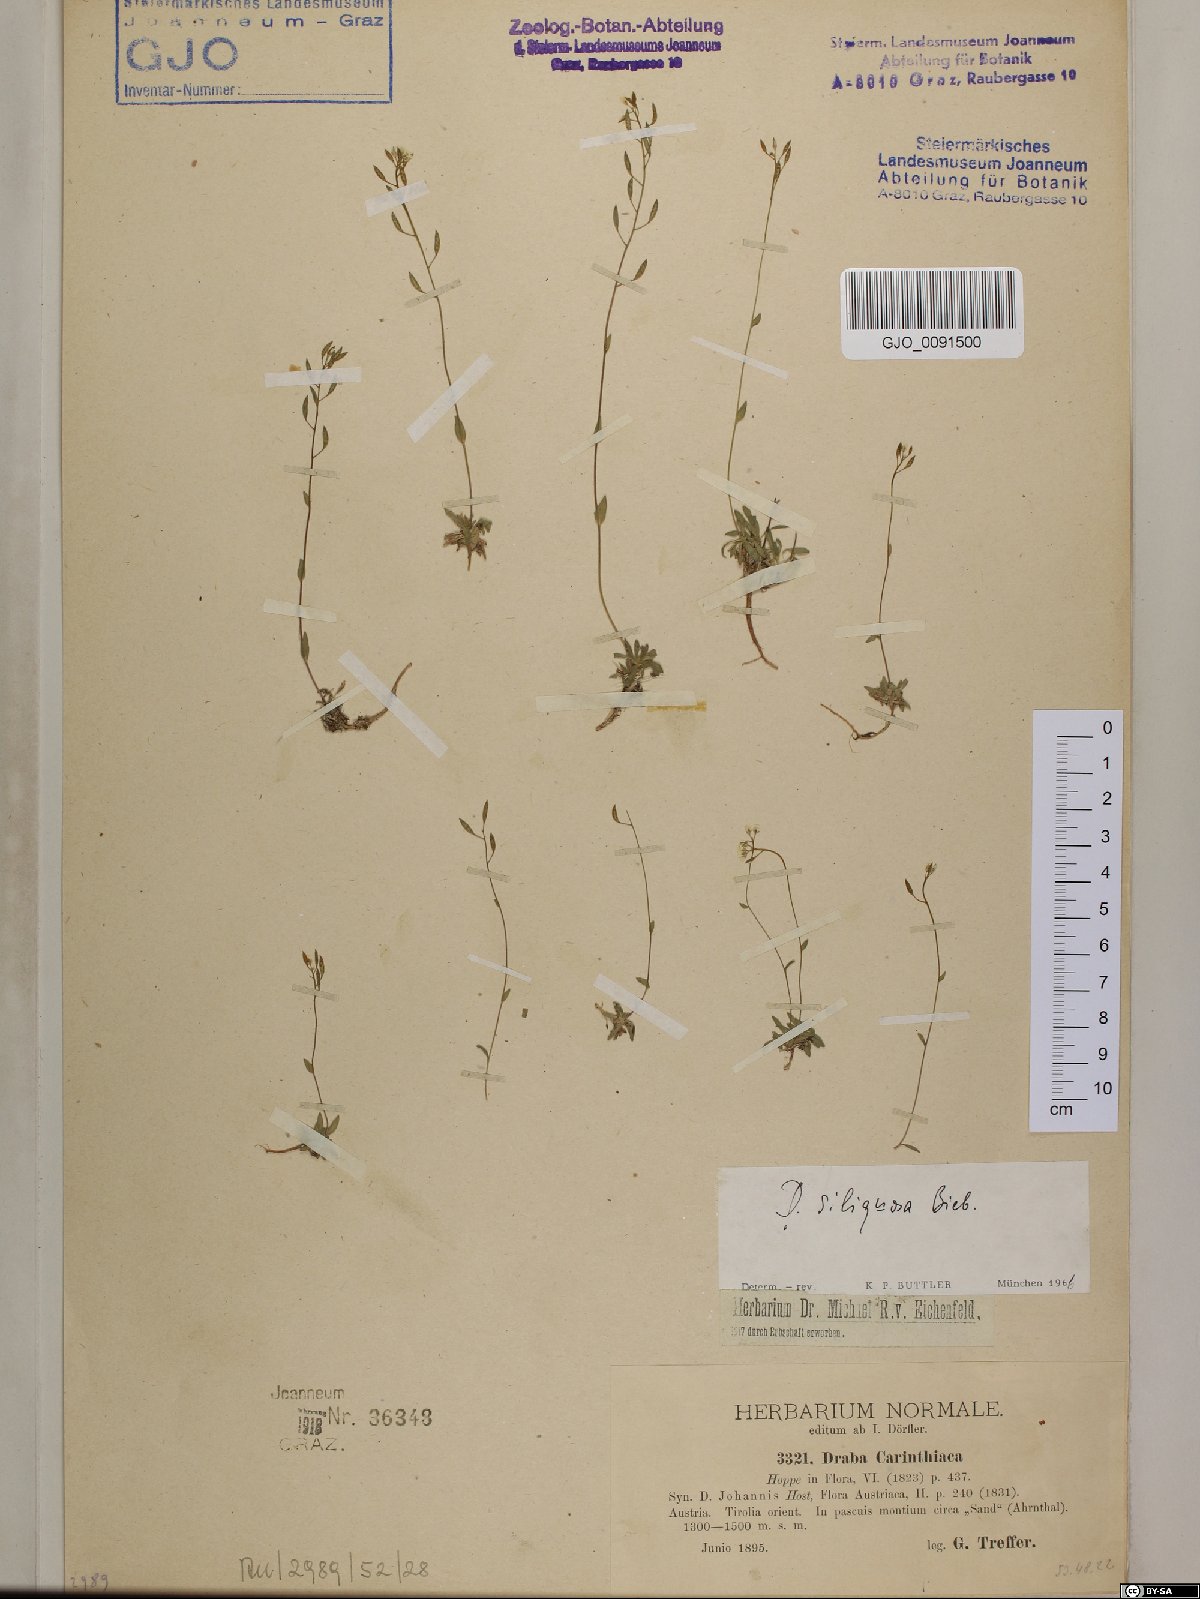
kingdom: Plantae
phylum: Tracheophyta
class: Magnoliopsida
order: Brassicales
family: Brassicaceae
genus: Draba
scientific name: Draba siliquosa
